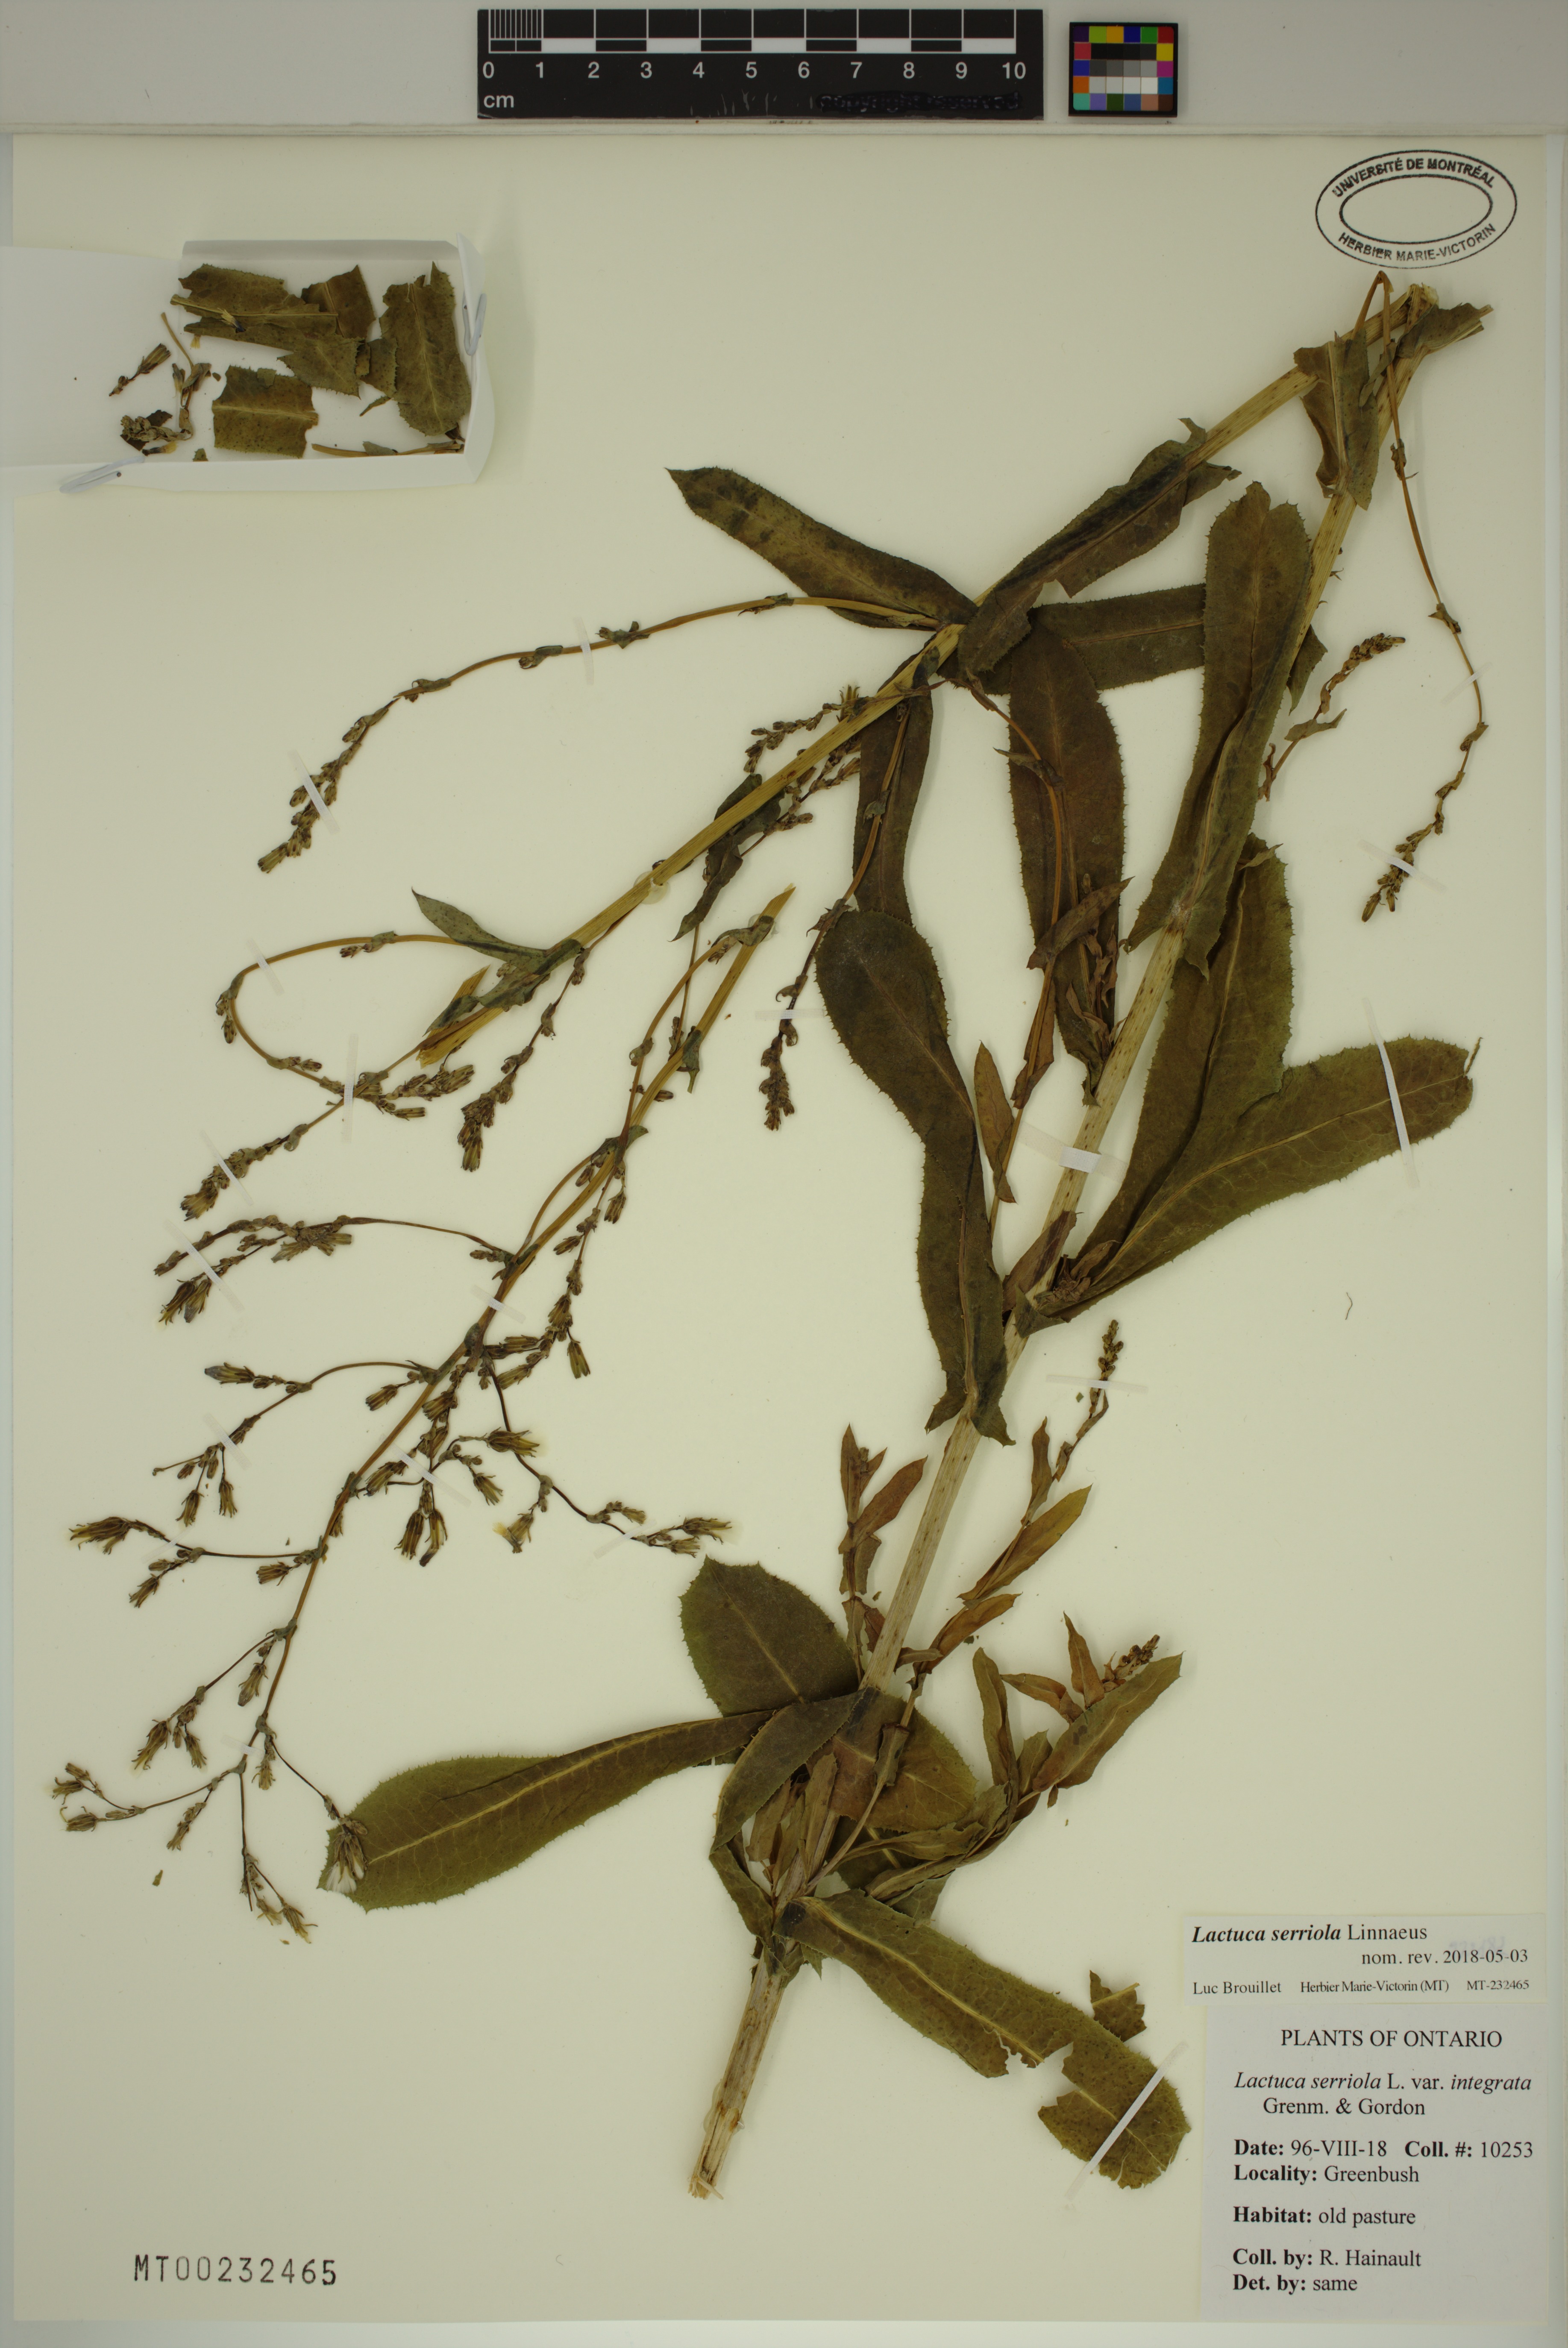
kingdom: Plantae
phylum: Tracheophyta
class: Magnoliopsida
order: Asterales
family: Asteraceae
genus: Lactuca
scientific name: Lactuca serriola
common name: Prickly lettuce
